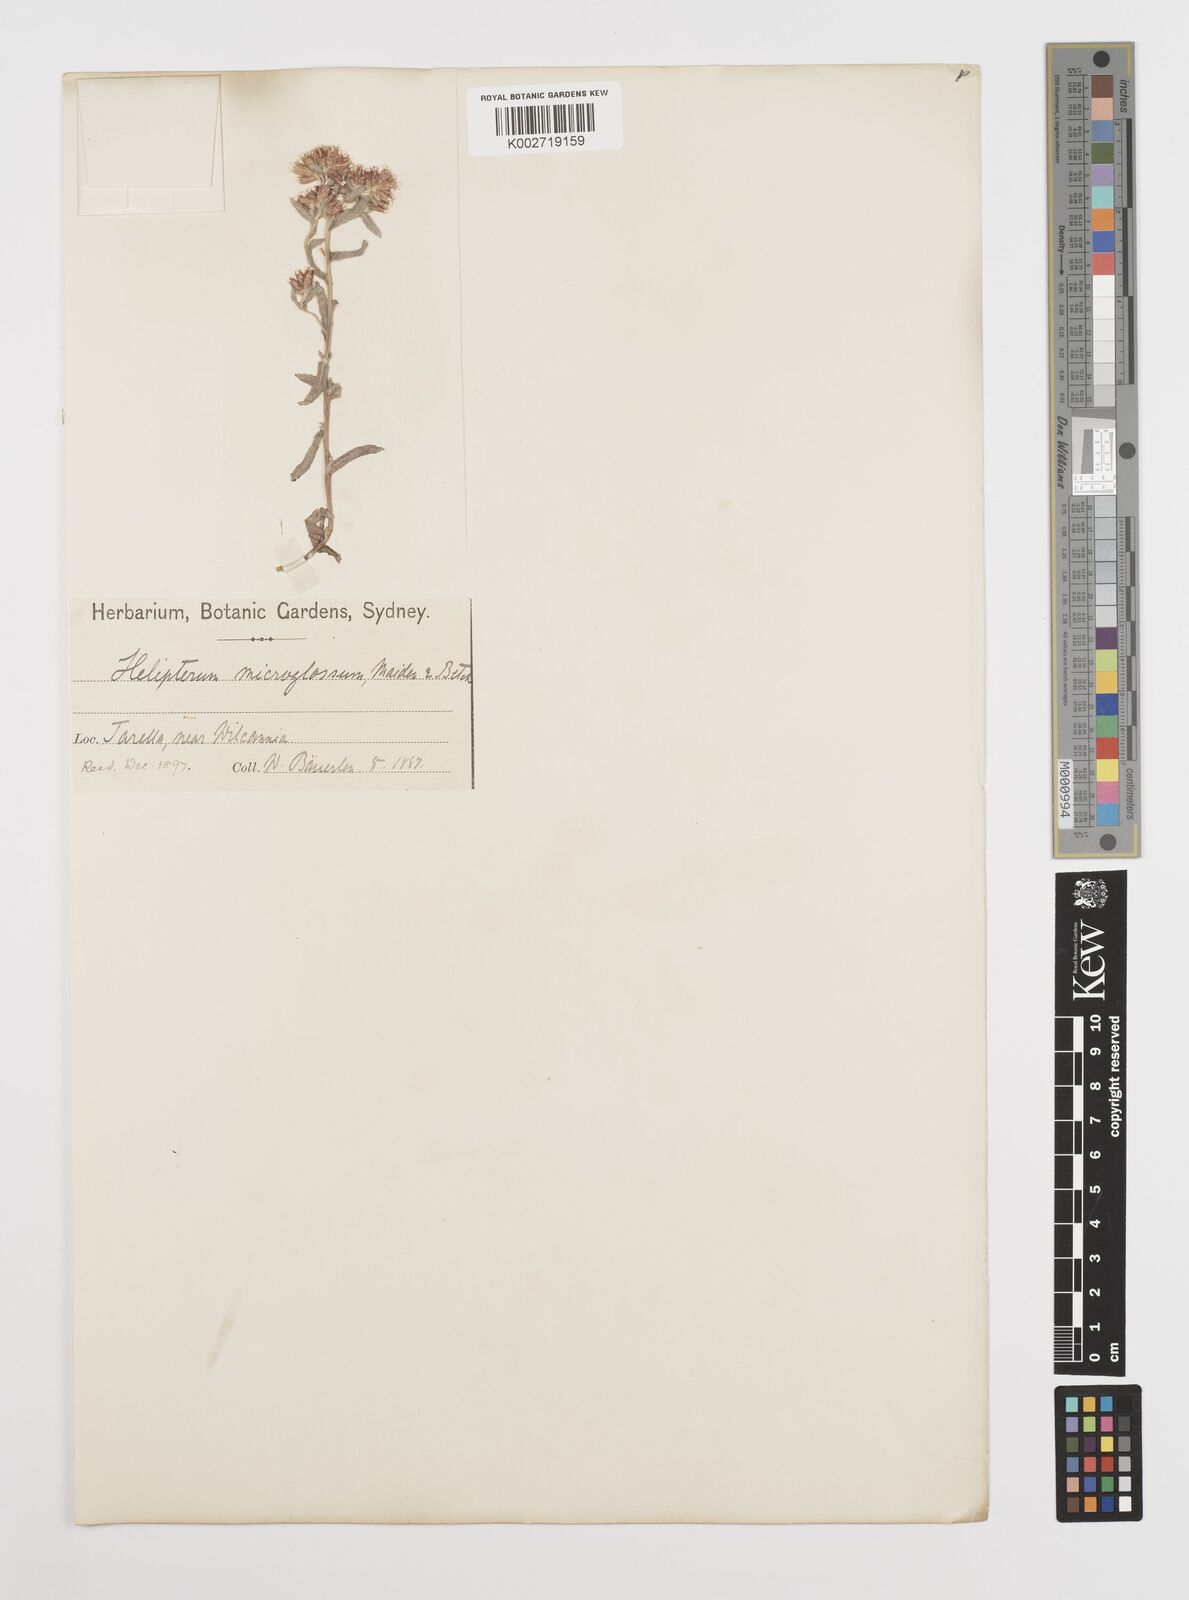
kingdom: Plantae
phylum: Tracheophyta
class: Magnoliopsida
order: Asterales
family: Asteraceae
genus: Rhodanthe
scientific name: Rhodanthe microglossa
